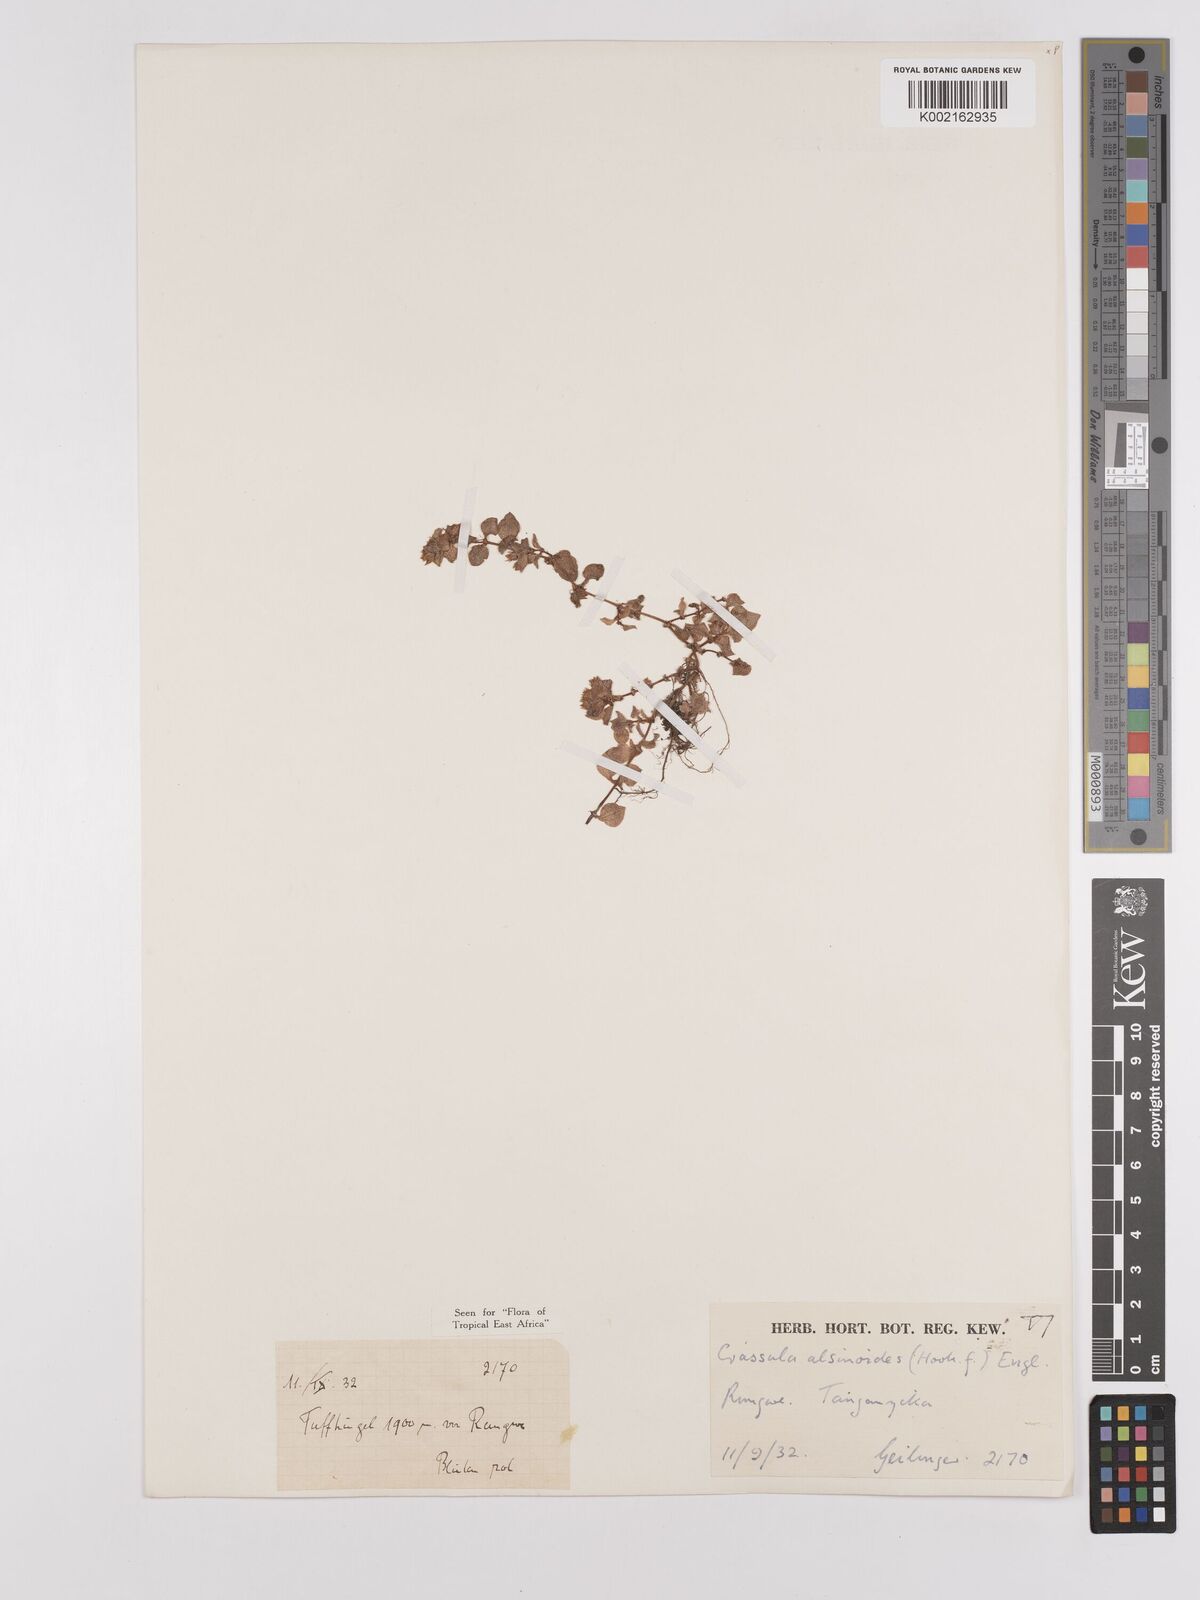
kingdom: Plantae
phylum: Tracheophyta
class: Magnoliopsida
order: Saxifragales
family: Crassulaceae
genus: Crassula
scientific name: Crassula alsinoides
